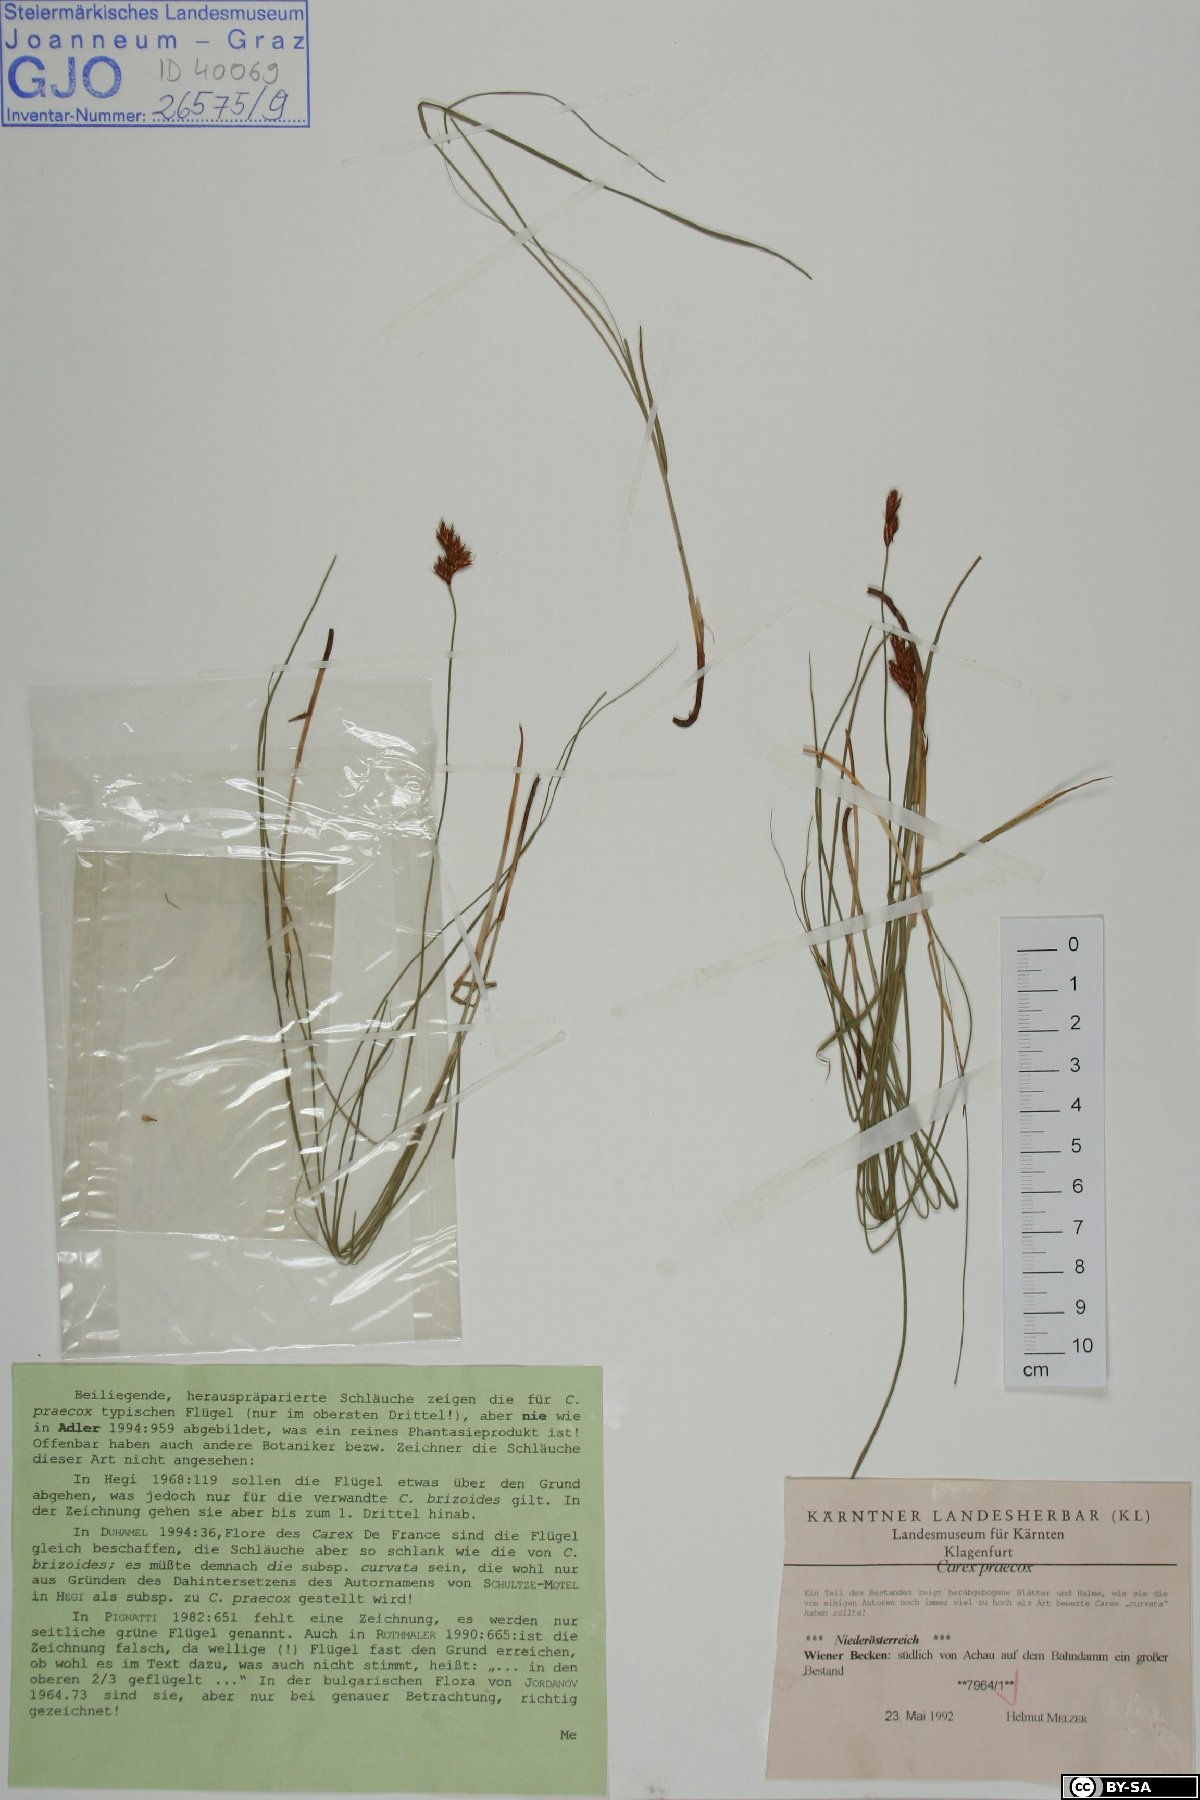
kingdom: Plantae
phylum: Tracheophyta
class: Liliopsida
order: Poales
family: Cyperaceae
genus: Carex
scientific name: Carex praecox
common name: Early sedge
